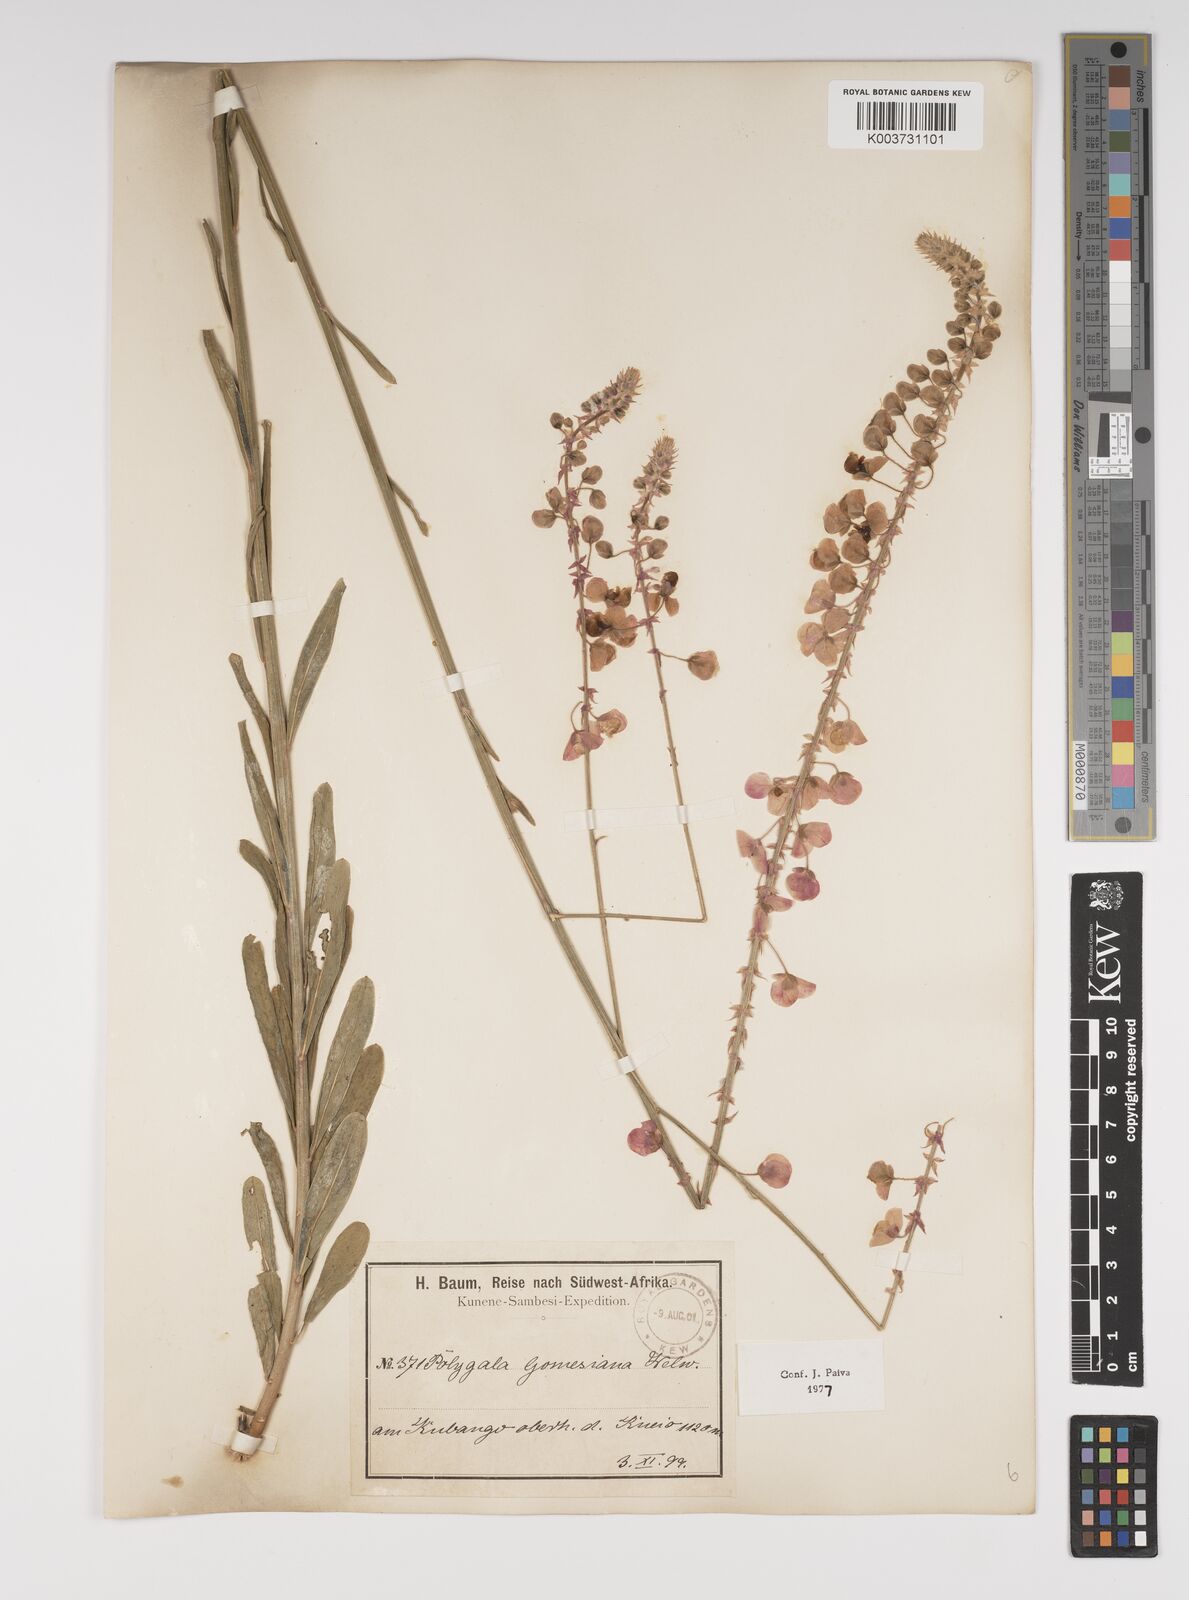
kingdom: Plantae
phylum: Tracheophyta
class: Magnoliopsida
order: Fabales
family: Polygalaceae
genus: Polygala
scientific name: Polygala gomesiana
